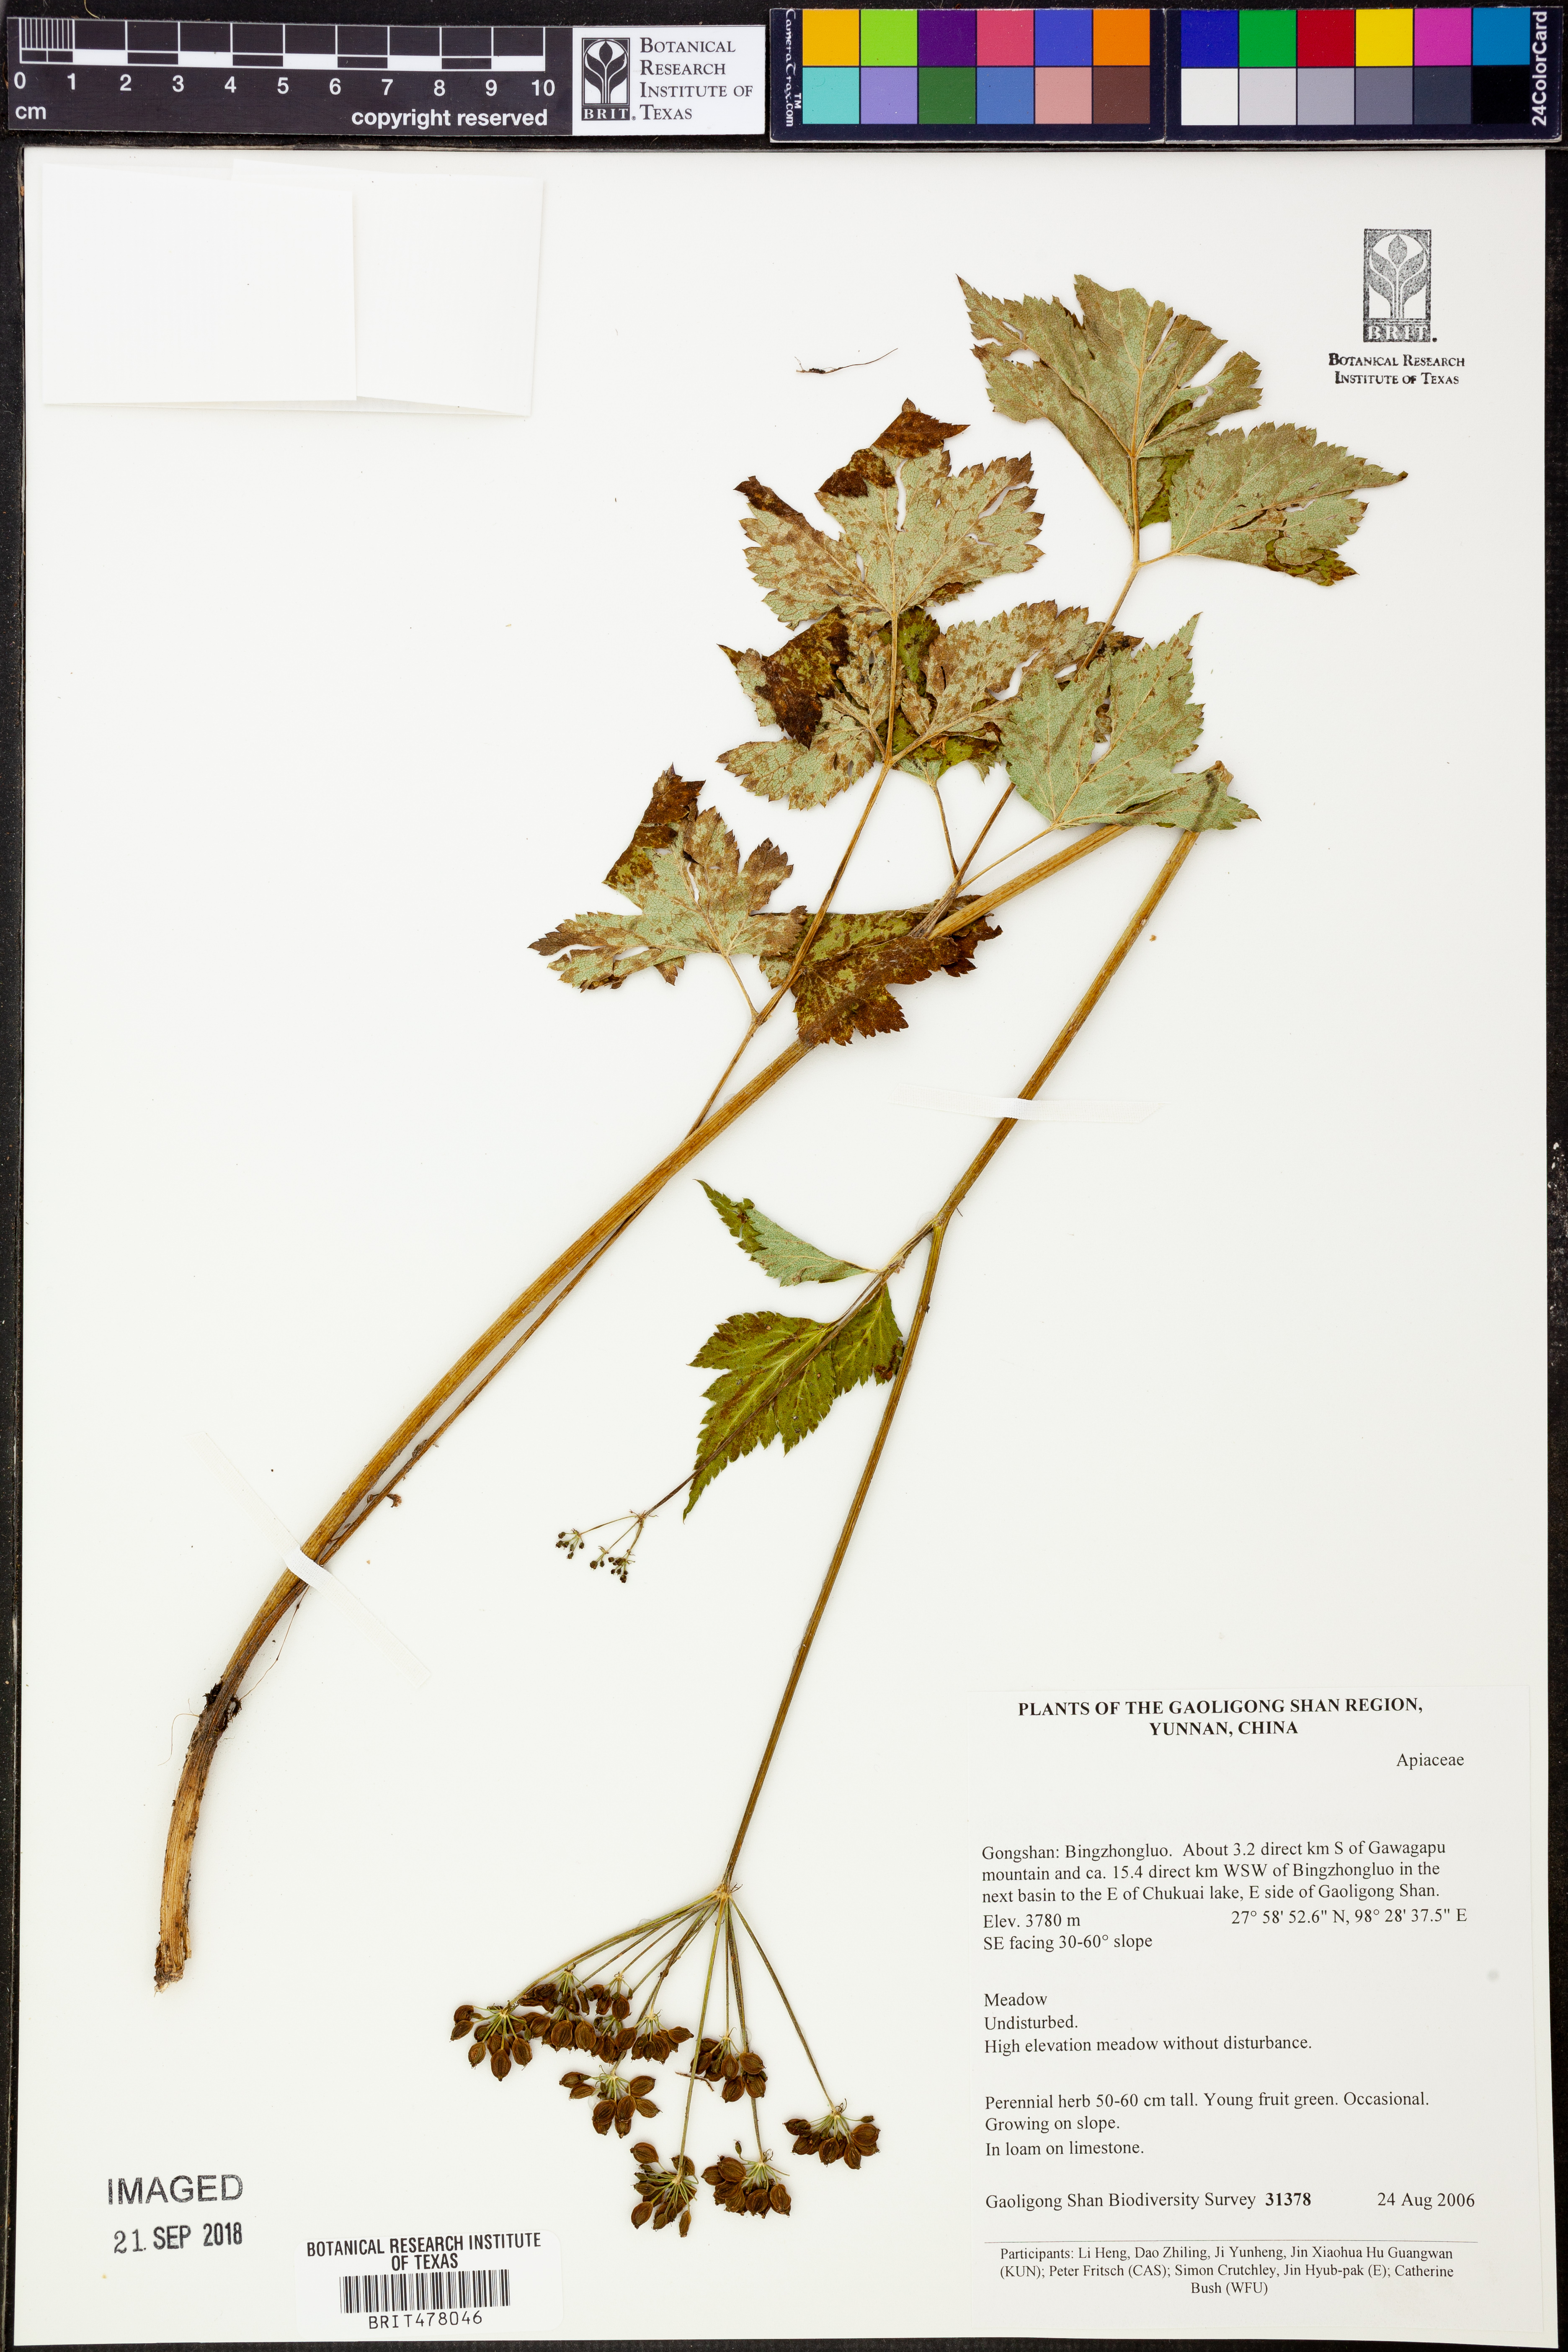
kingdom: Plantae
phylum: Tracheophyta
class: Magnoliopsida
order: Apiales
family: Apiaceae
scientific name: Apiaceae
